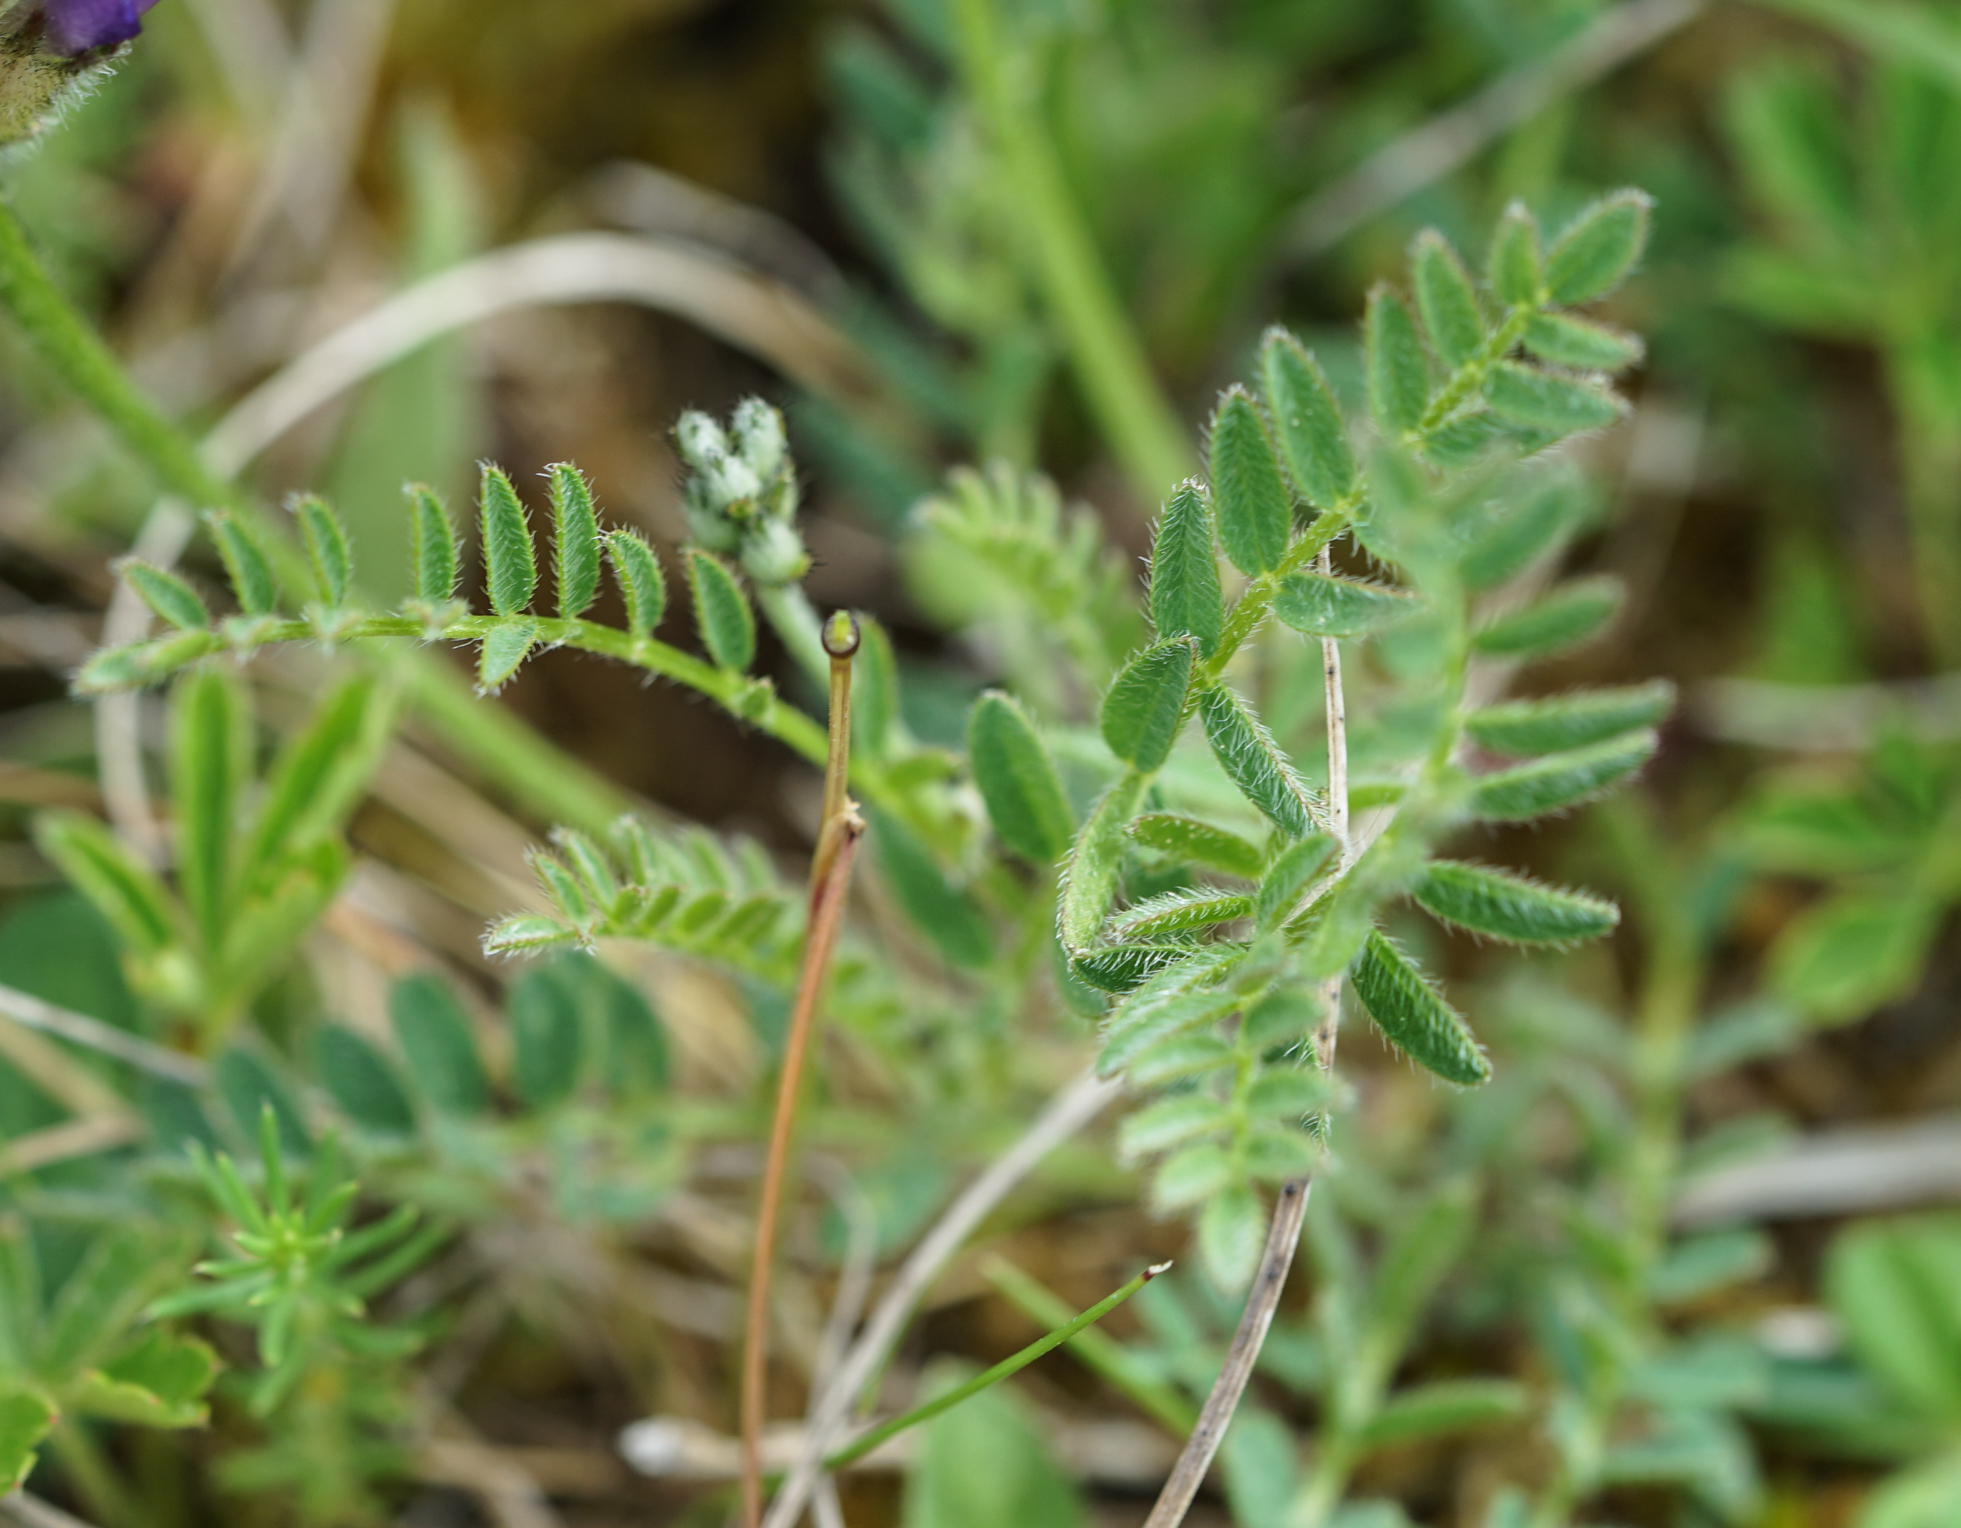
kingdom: Plantae
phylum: Tracheophyta
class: Magnoliopsida
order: Fabales
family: Fabaceae
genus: Astragalus
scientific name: Astragalus onobrychis
